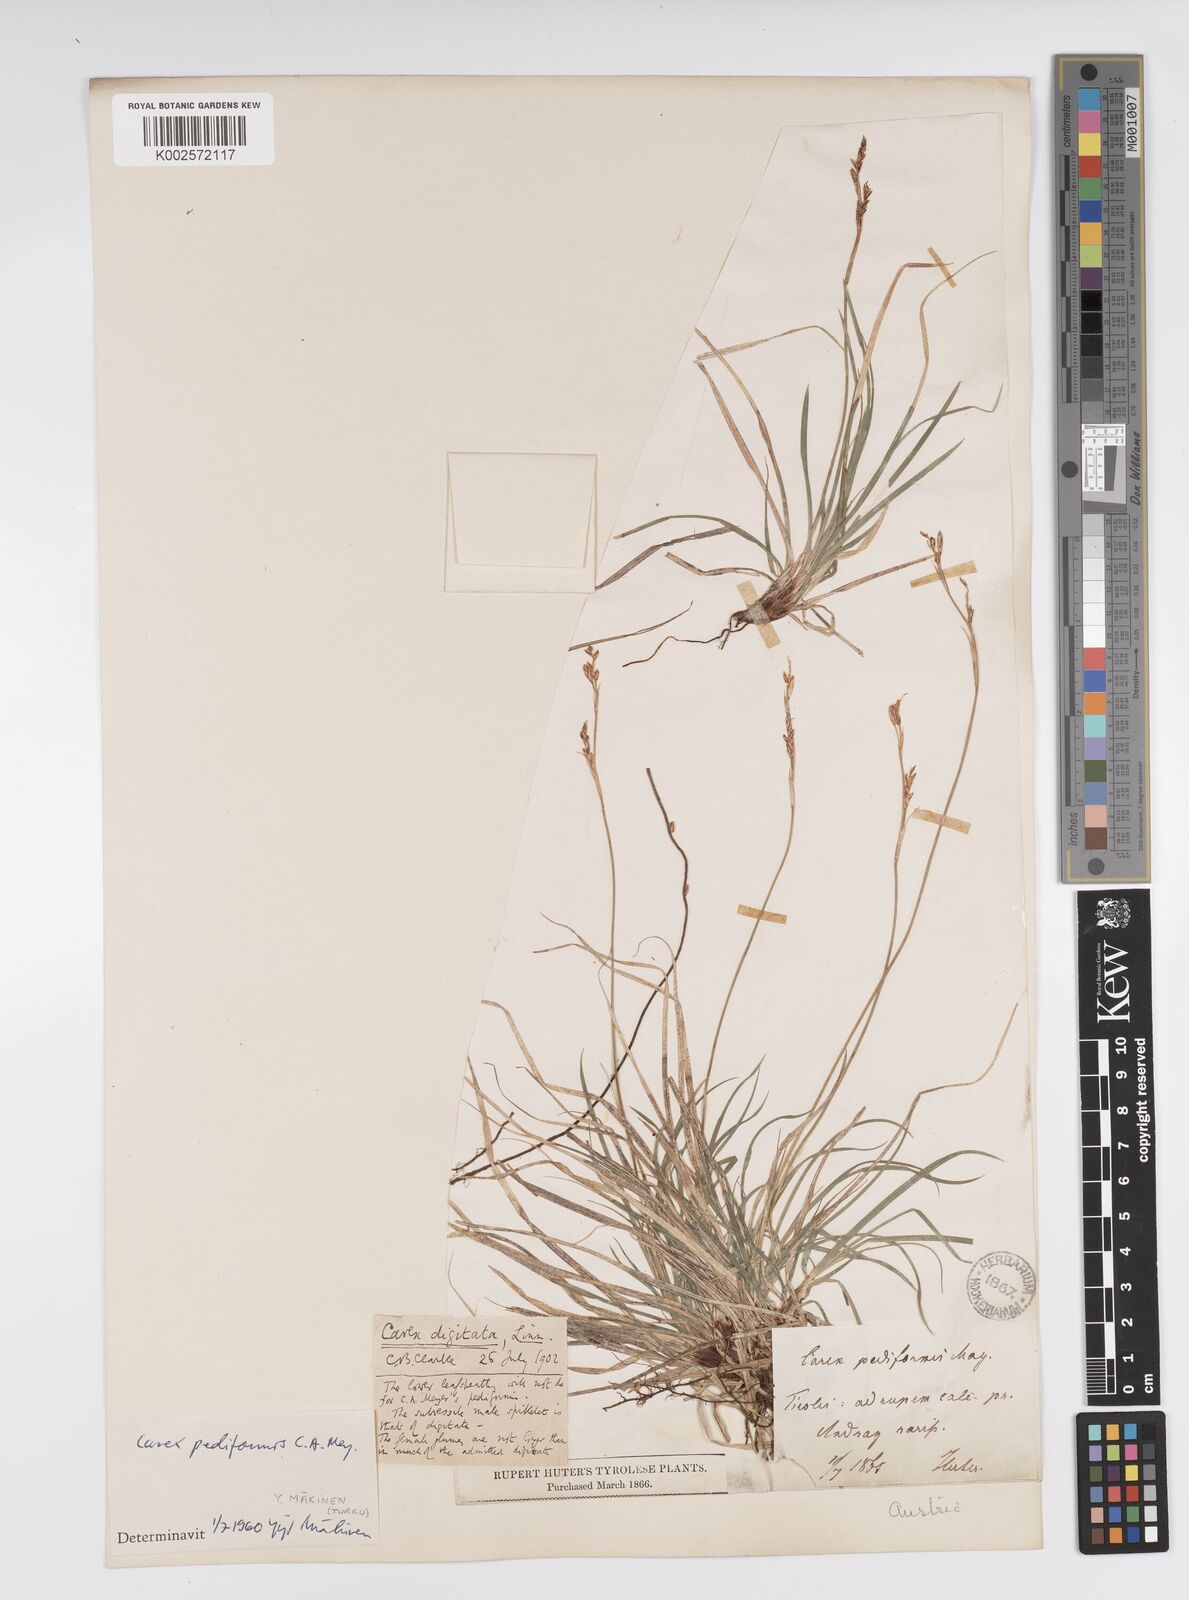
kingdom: Plantae
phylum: Tracheophyta
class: Liliopsida
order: Poales
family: Cyperaceae
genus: Carex
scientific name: Carex pediformis
